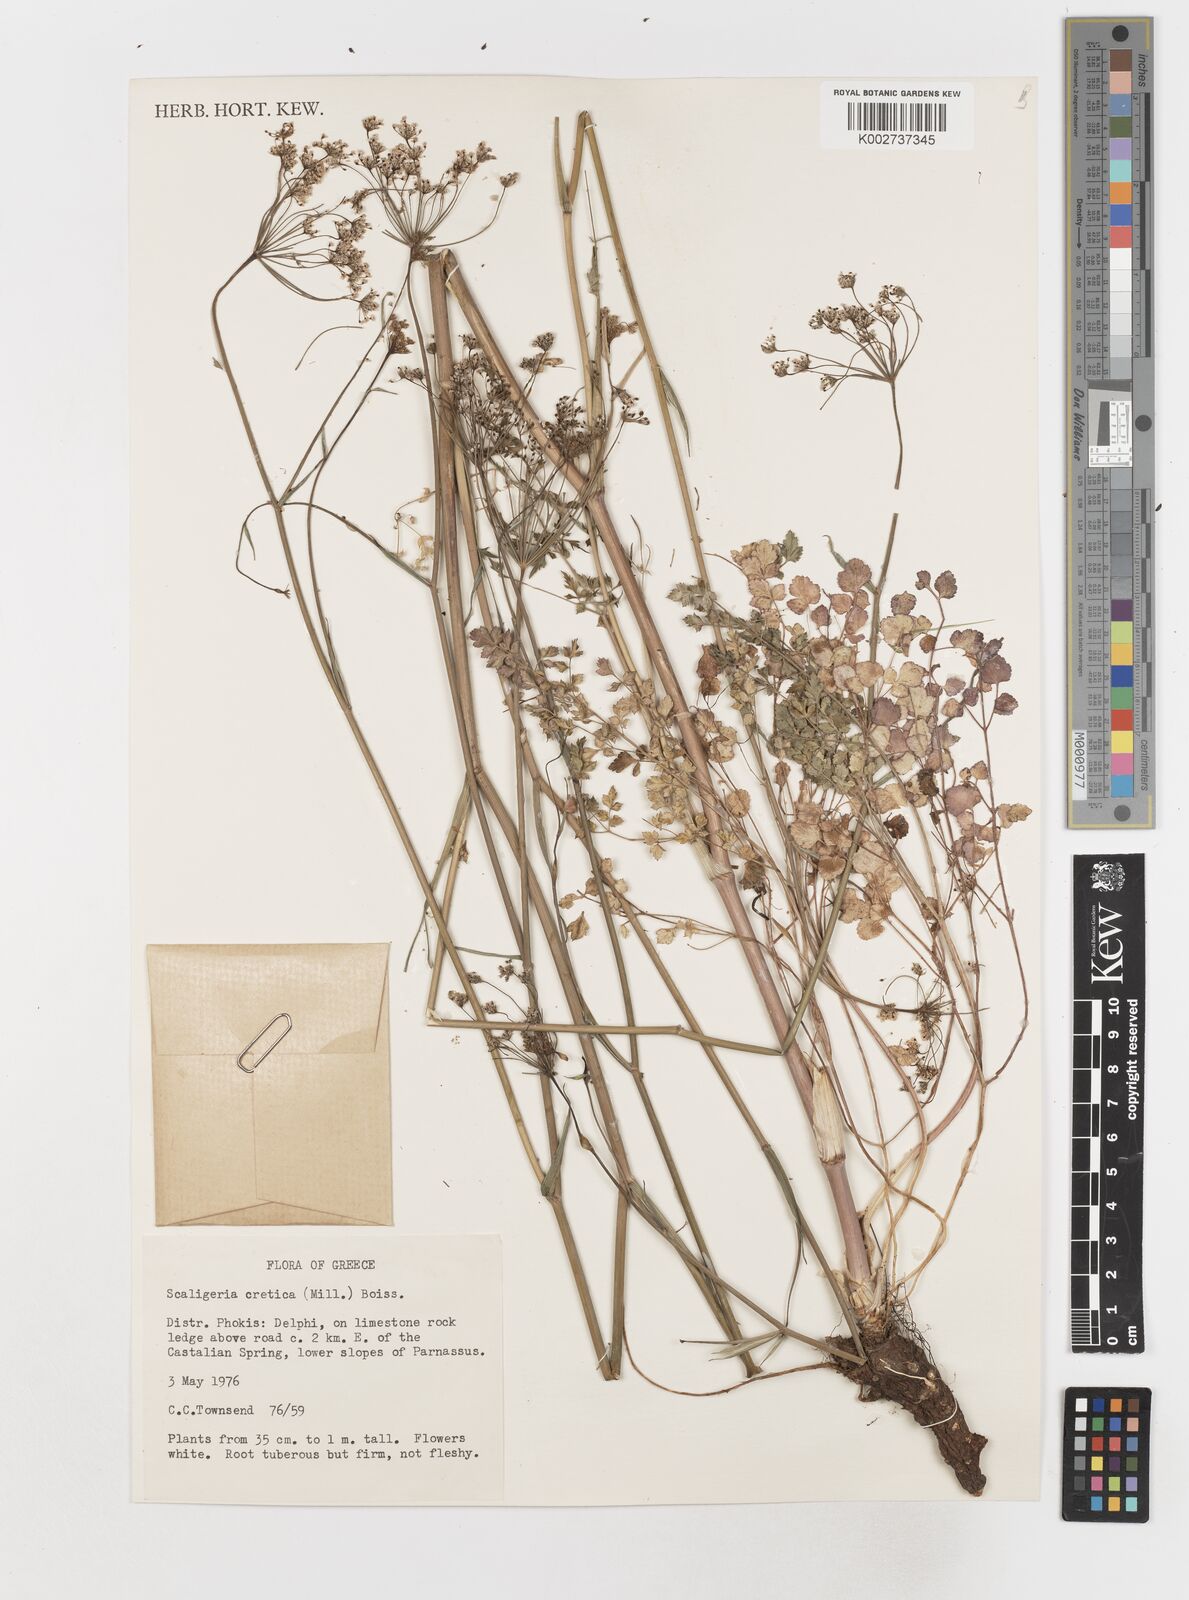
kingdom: Plantae
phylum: Tracheophyta
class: Magnoliopsida
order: Apiales
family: Apiaceae
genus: Scaligeria
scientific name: Scaligeria napiformis
